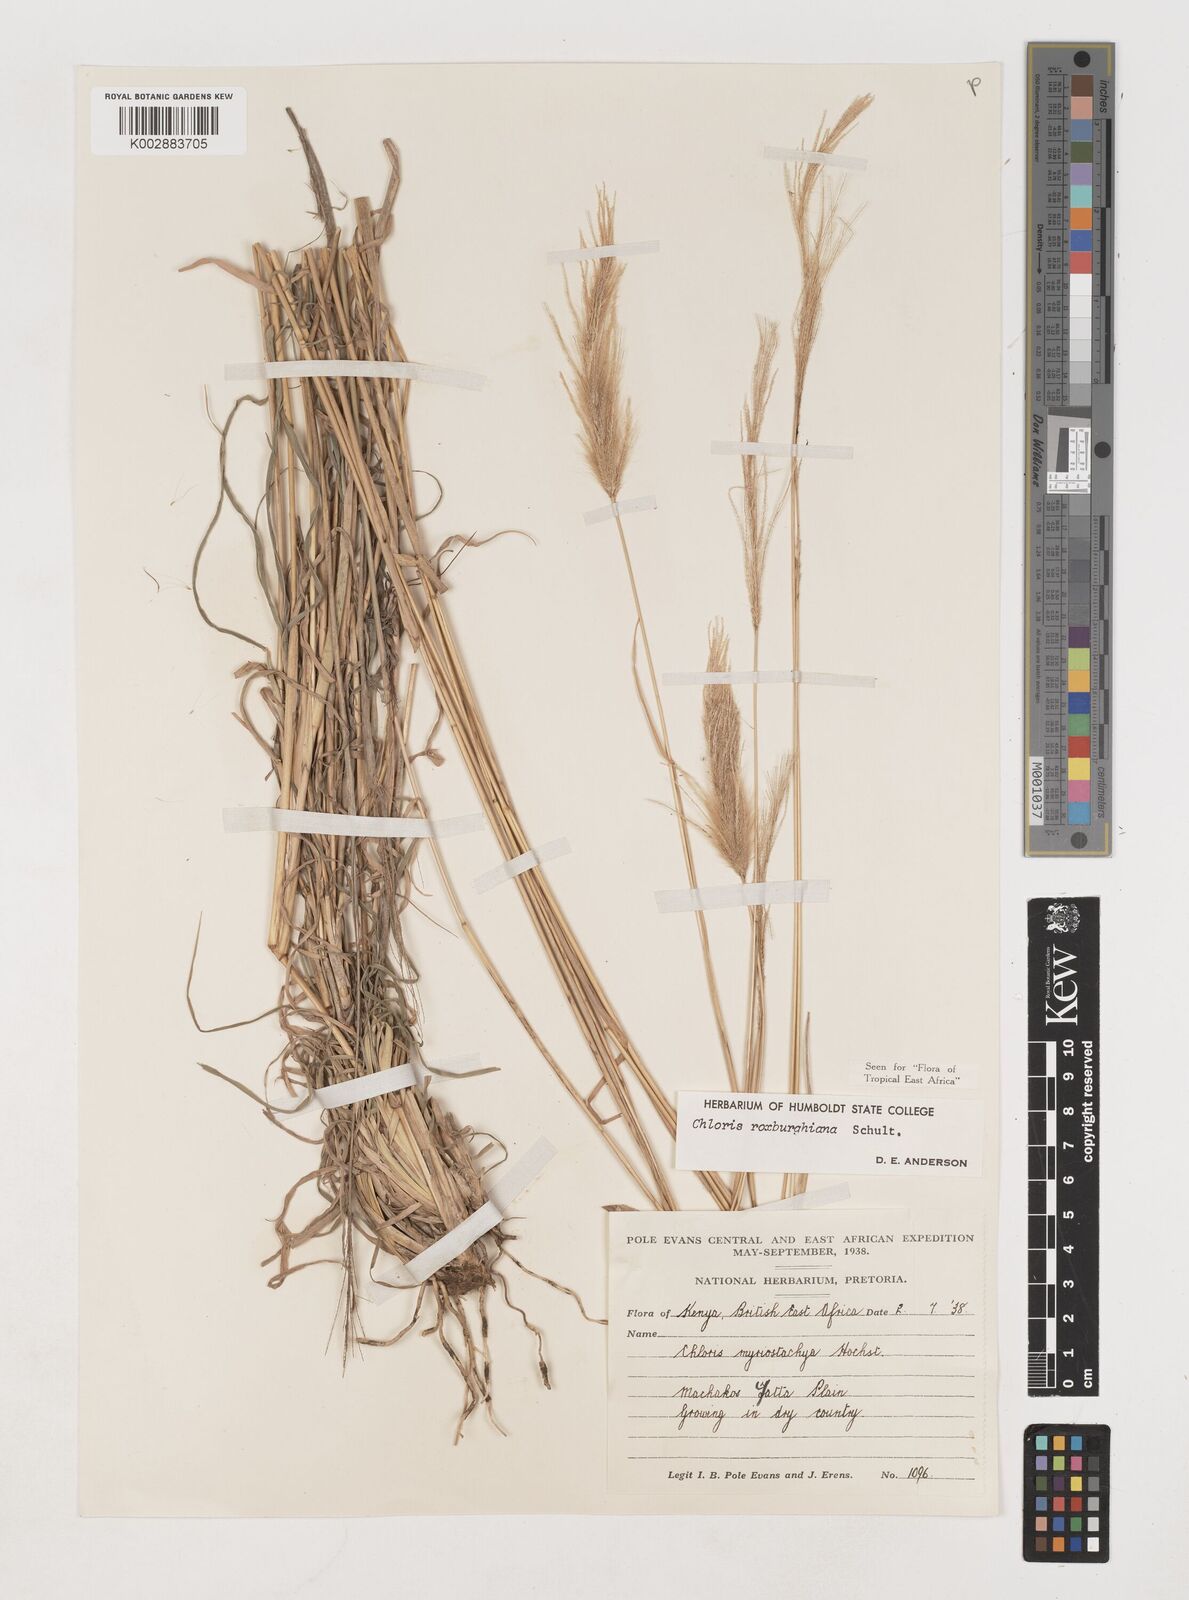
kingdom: Plantae
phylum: Tracheophyta
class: Liliopsida
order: Poales
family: Poaceae
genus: Tetrapogon
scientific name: Tetrapogon roxburghiana
